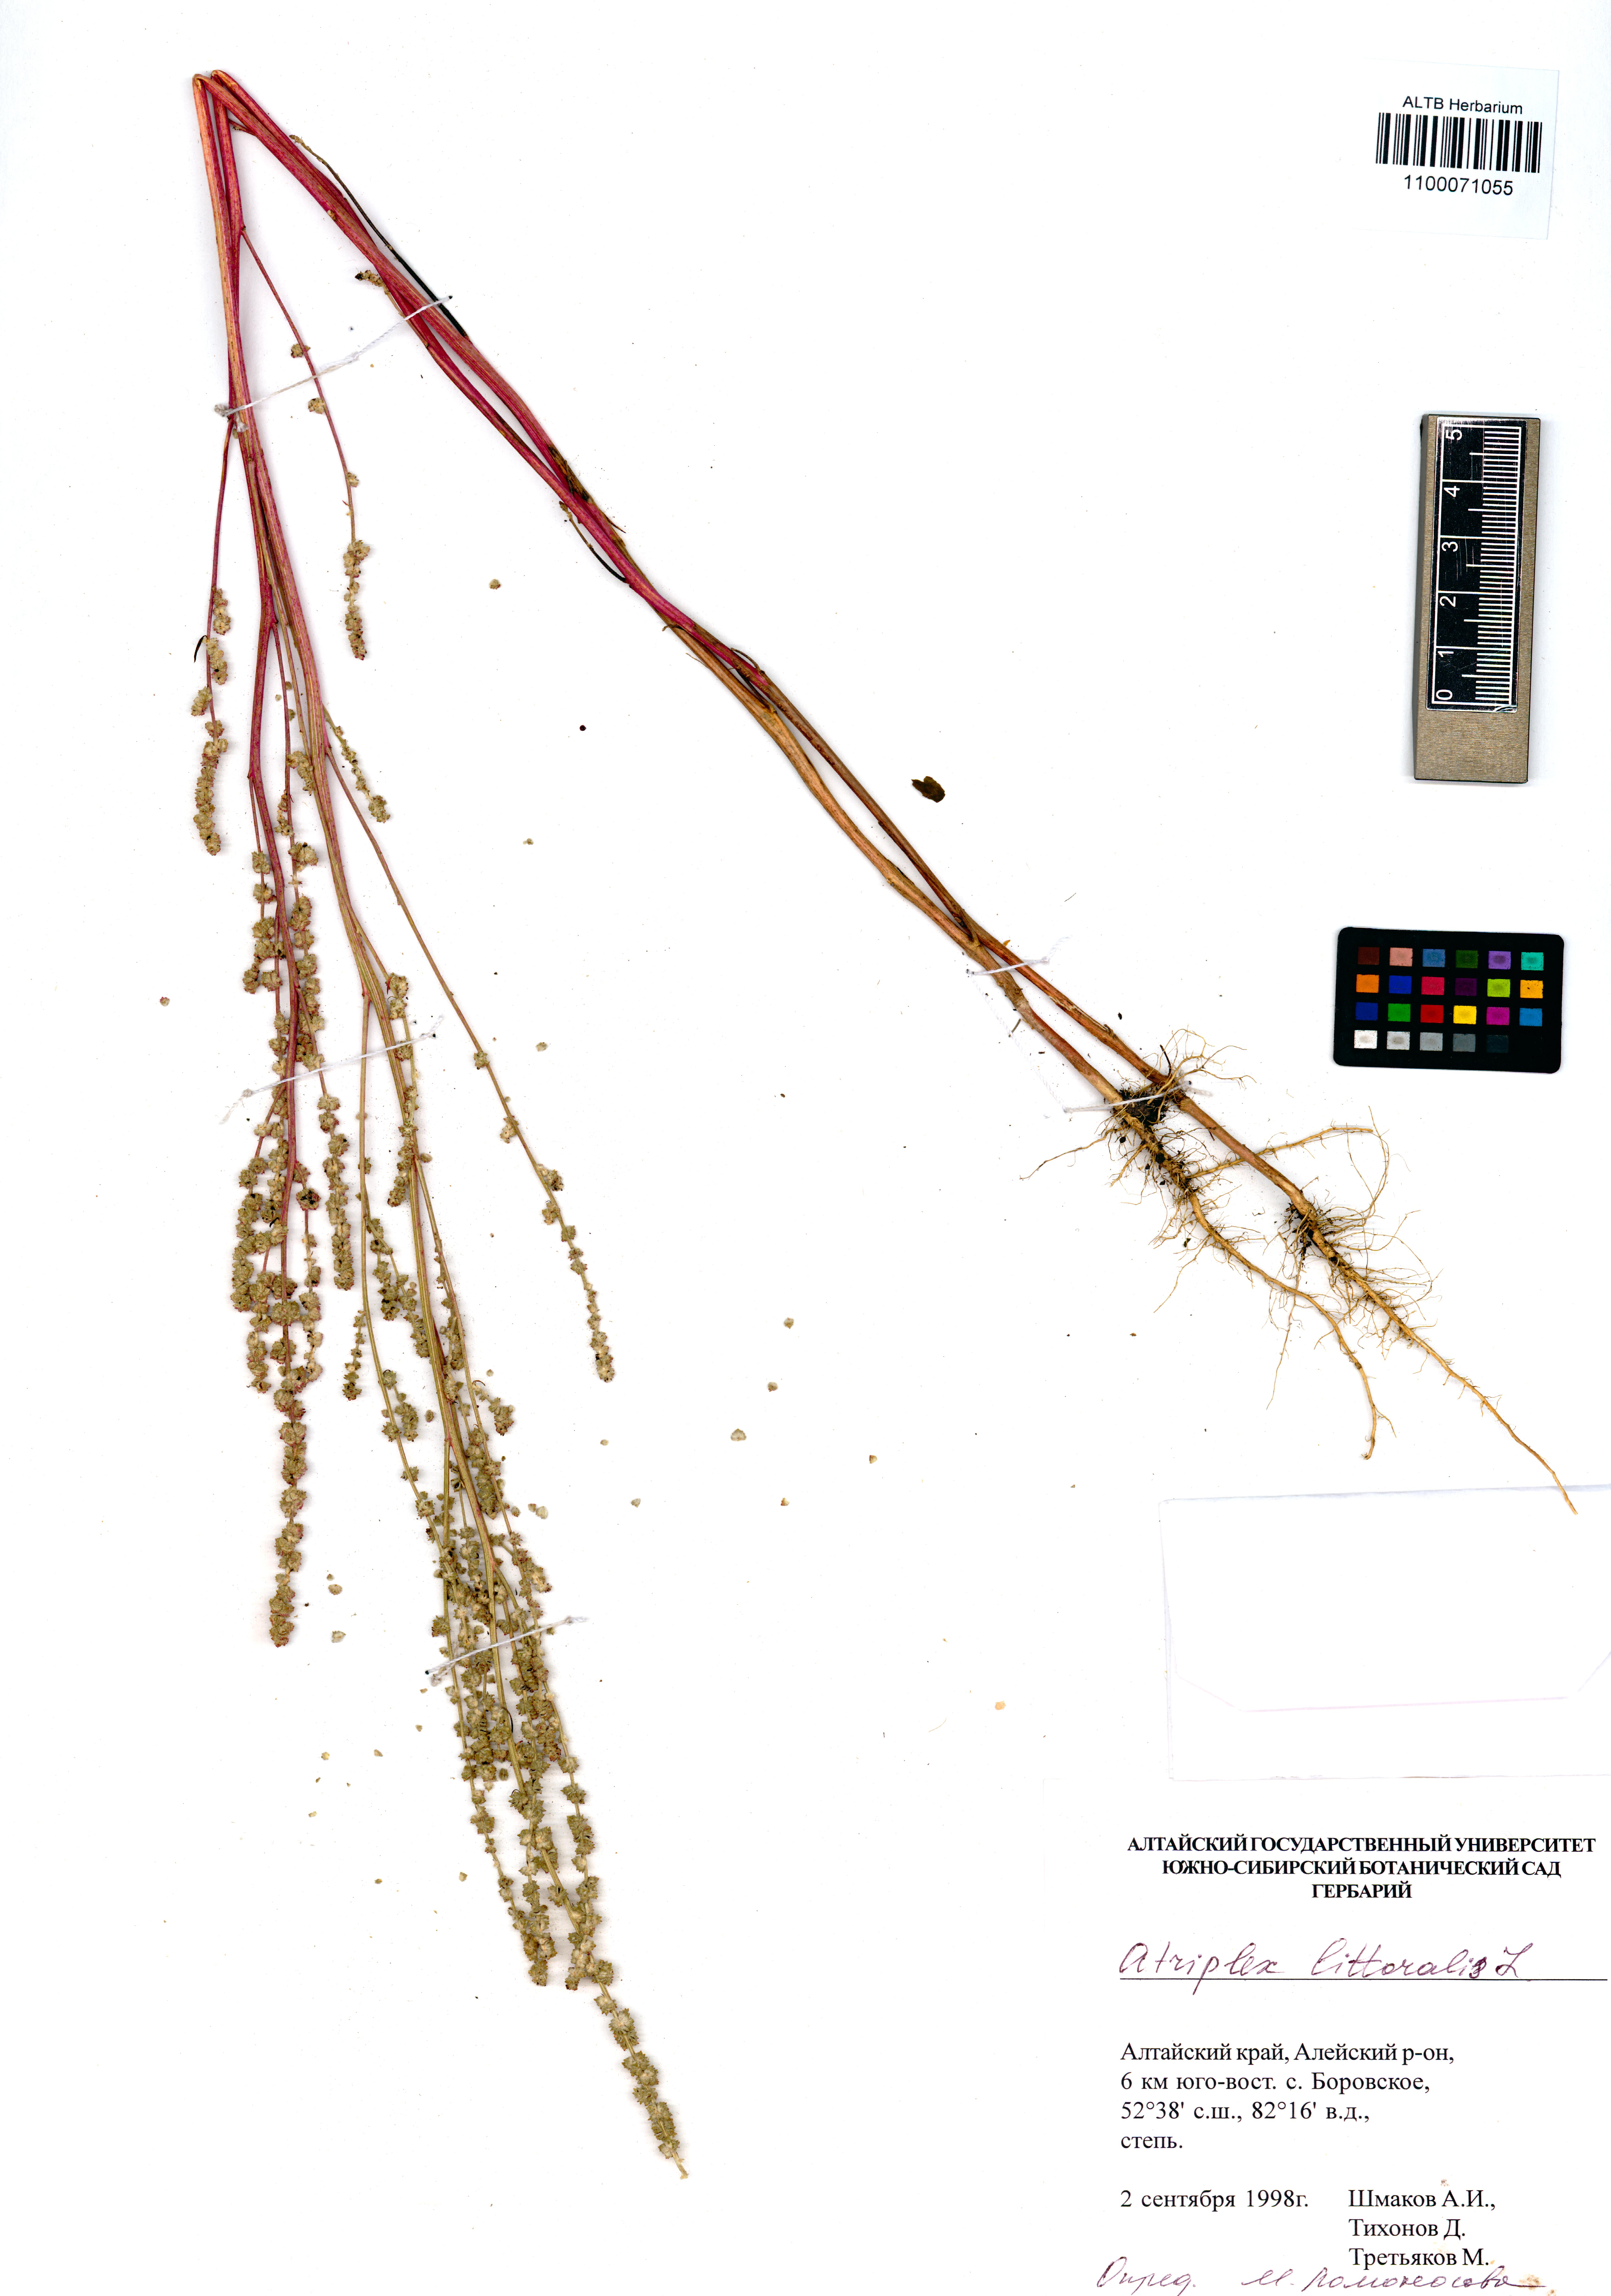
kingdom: Plantae
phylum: Tracheophyta
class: Magnoliopsida
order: Caryophyllales
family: Amaranthaceae
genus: Atriplex
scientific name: Atriplex littoralis
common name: Grass-leaved orache
